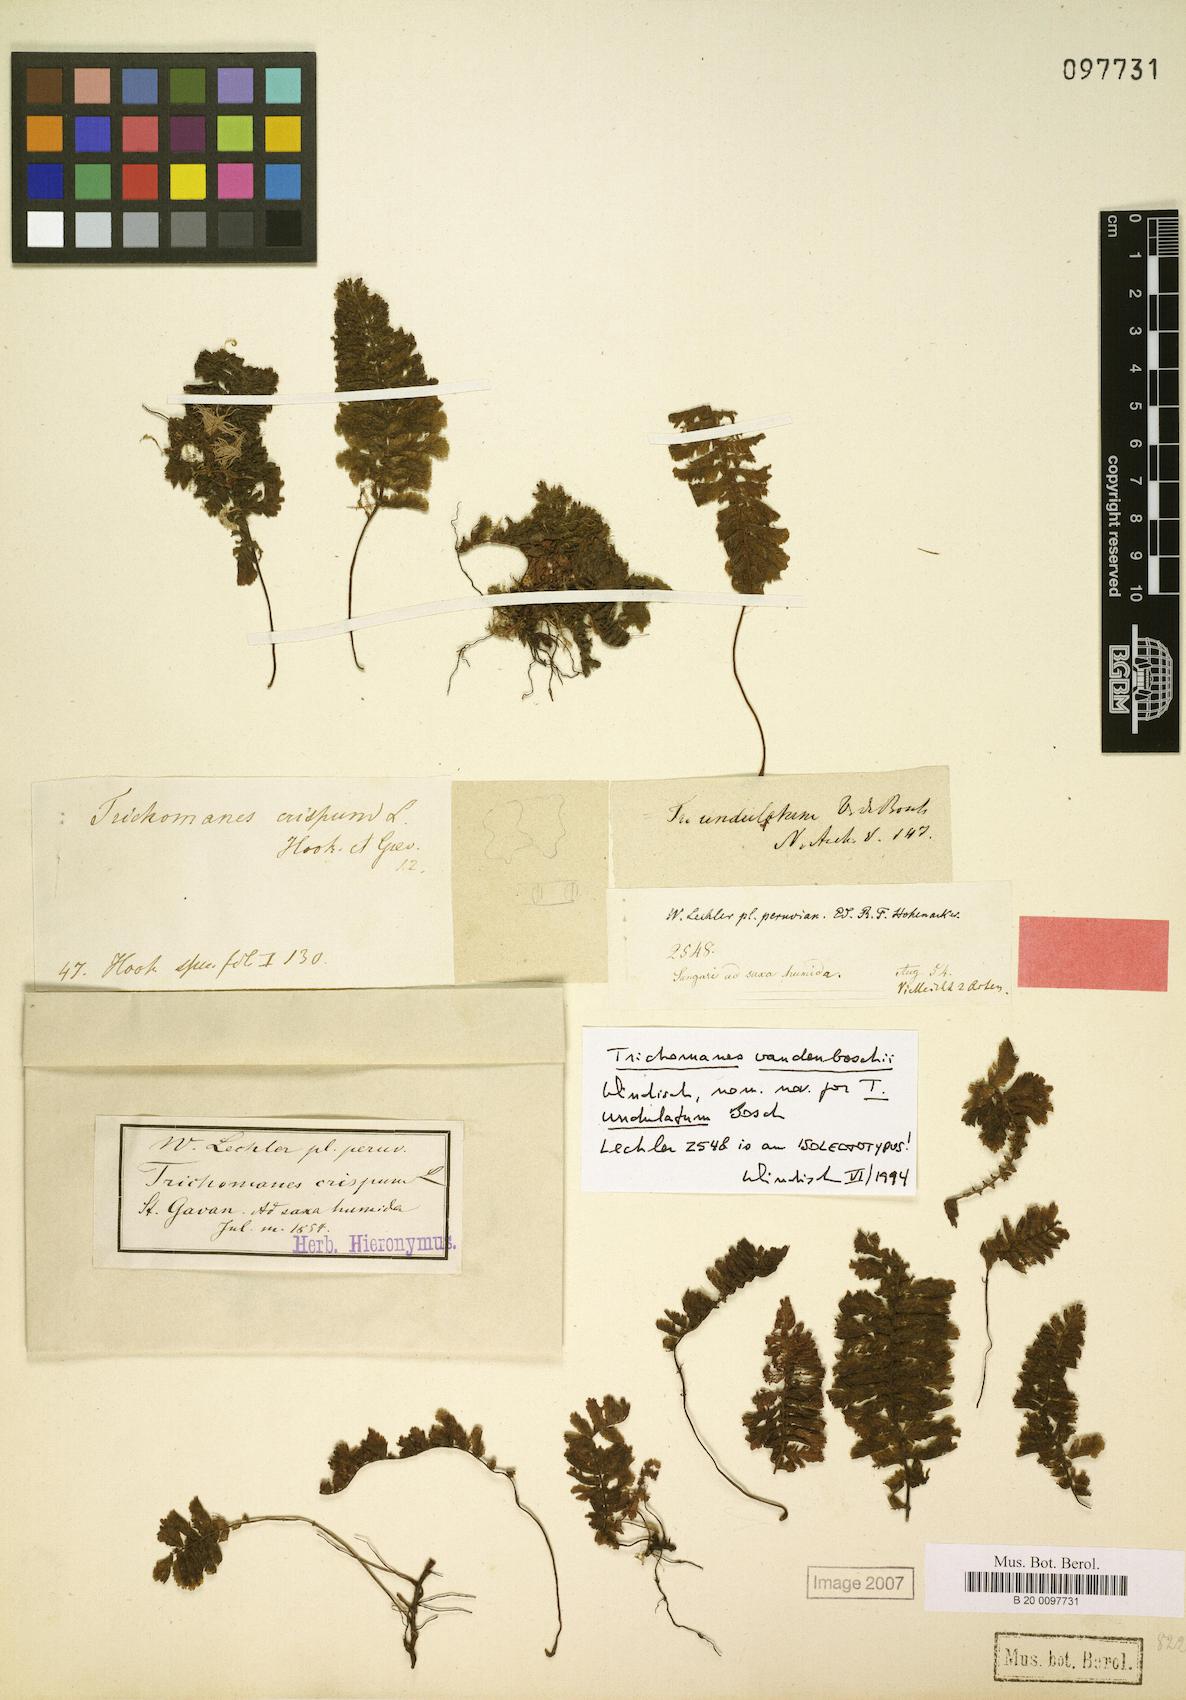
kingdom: Plantae
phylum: Tracheophyta
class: Polypodiopsida
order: Hymenophyllales
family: Hymenophyllaceae
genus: Trichomanes
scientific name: Trichomanes vandenboschii
